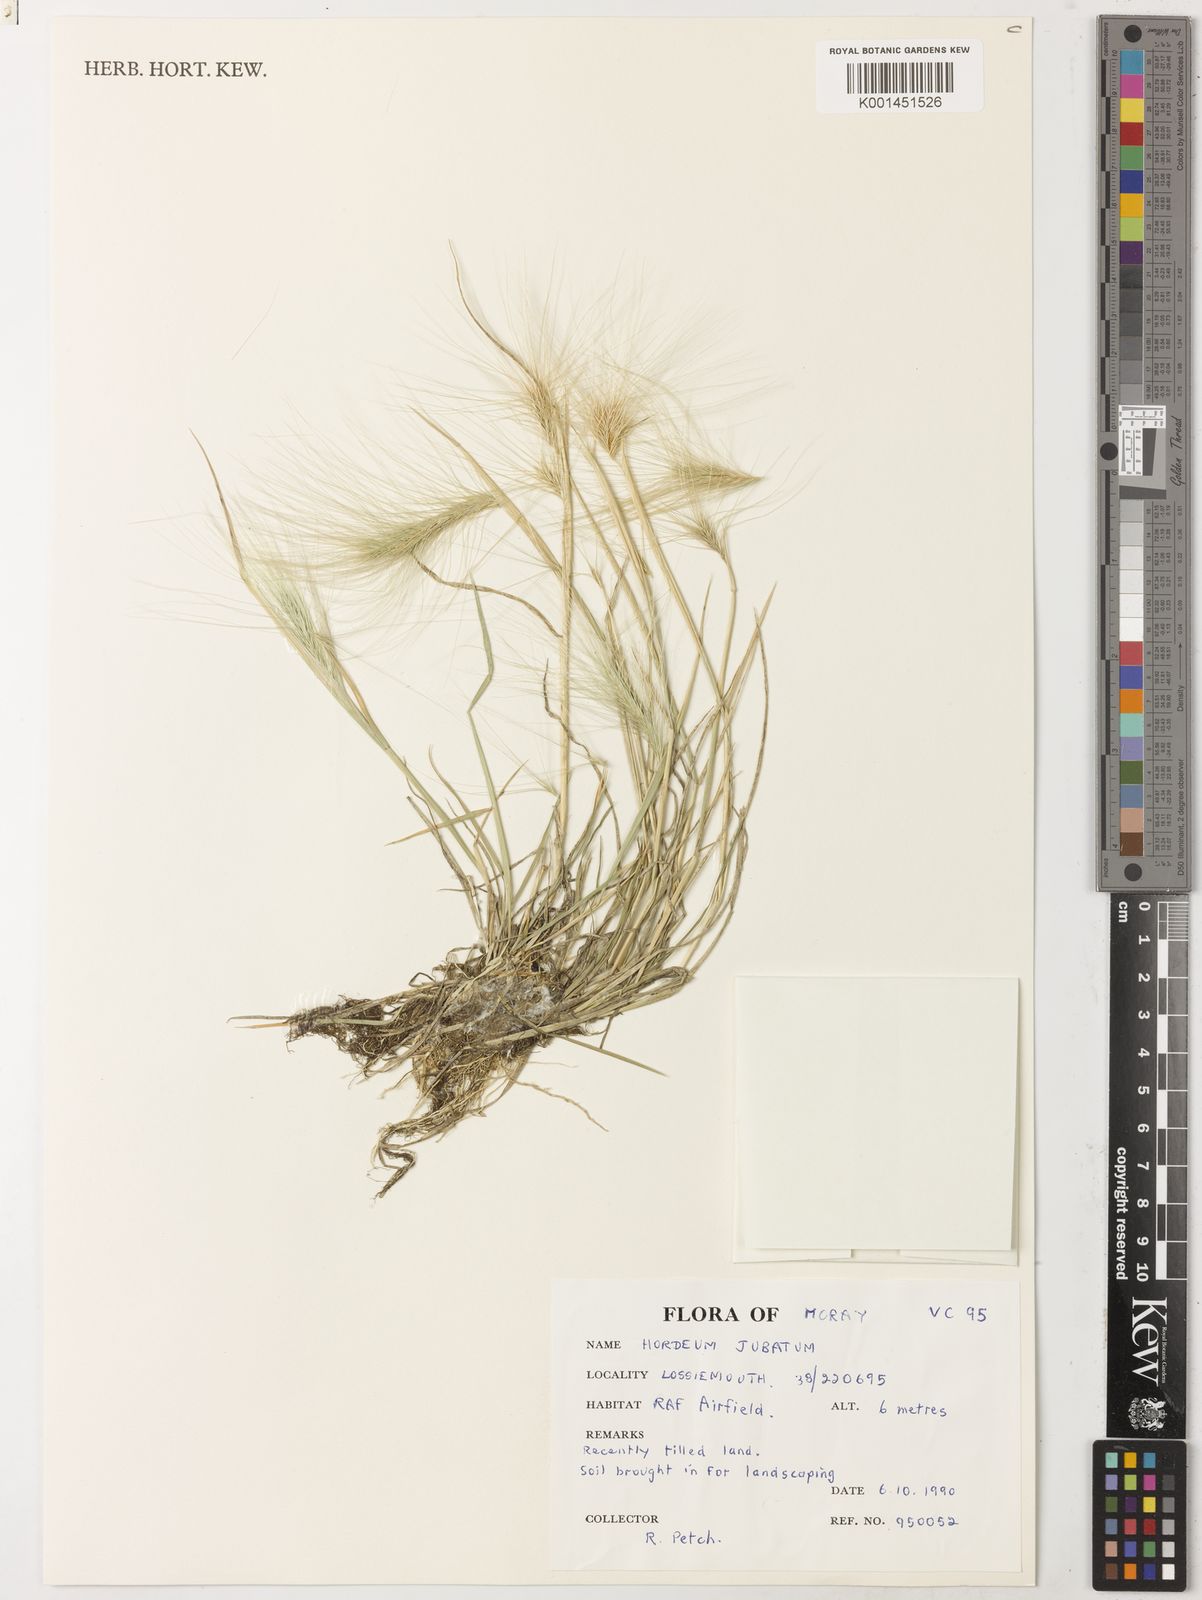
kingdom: Plantae
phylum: Tracheophyta
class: Liliopsida
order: Poales
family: Poaceae
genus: Hordeum
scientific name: Hordeum jubatum
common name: Foxtail barley
